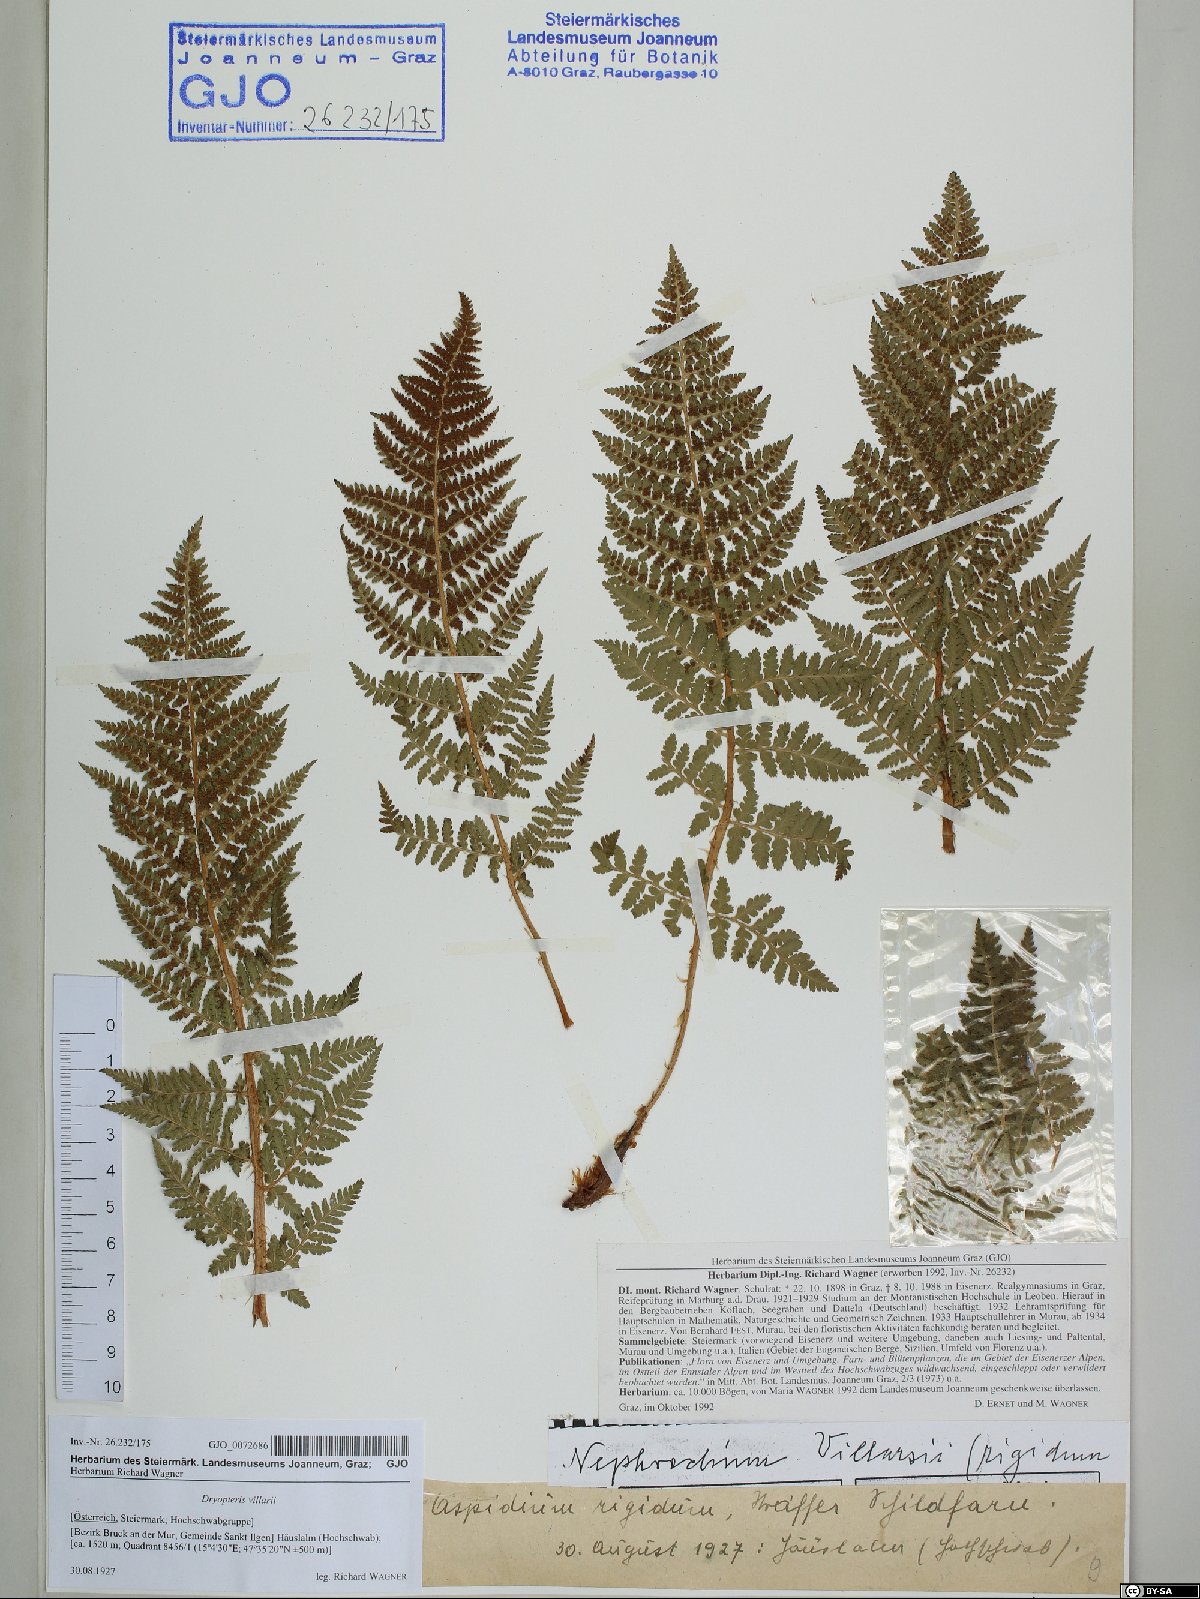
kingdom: Plantae
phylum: Tracheophyta
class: Polypodiopsida
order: Polypodiales
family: Dryopteridaceae
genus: Dryopteris
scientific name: Dryopteris villarii
